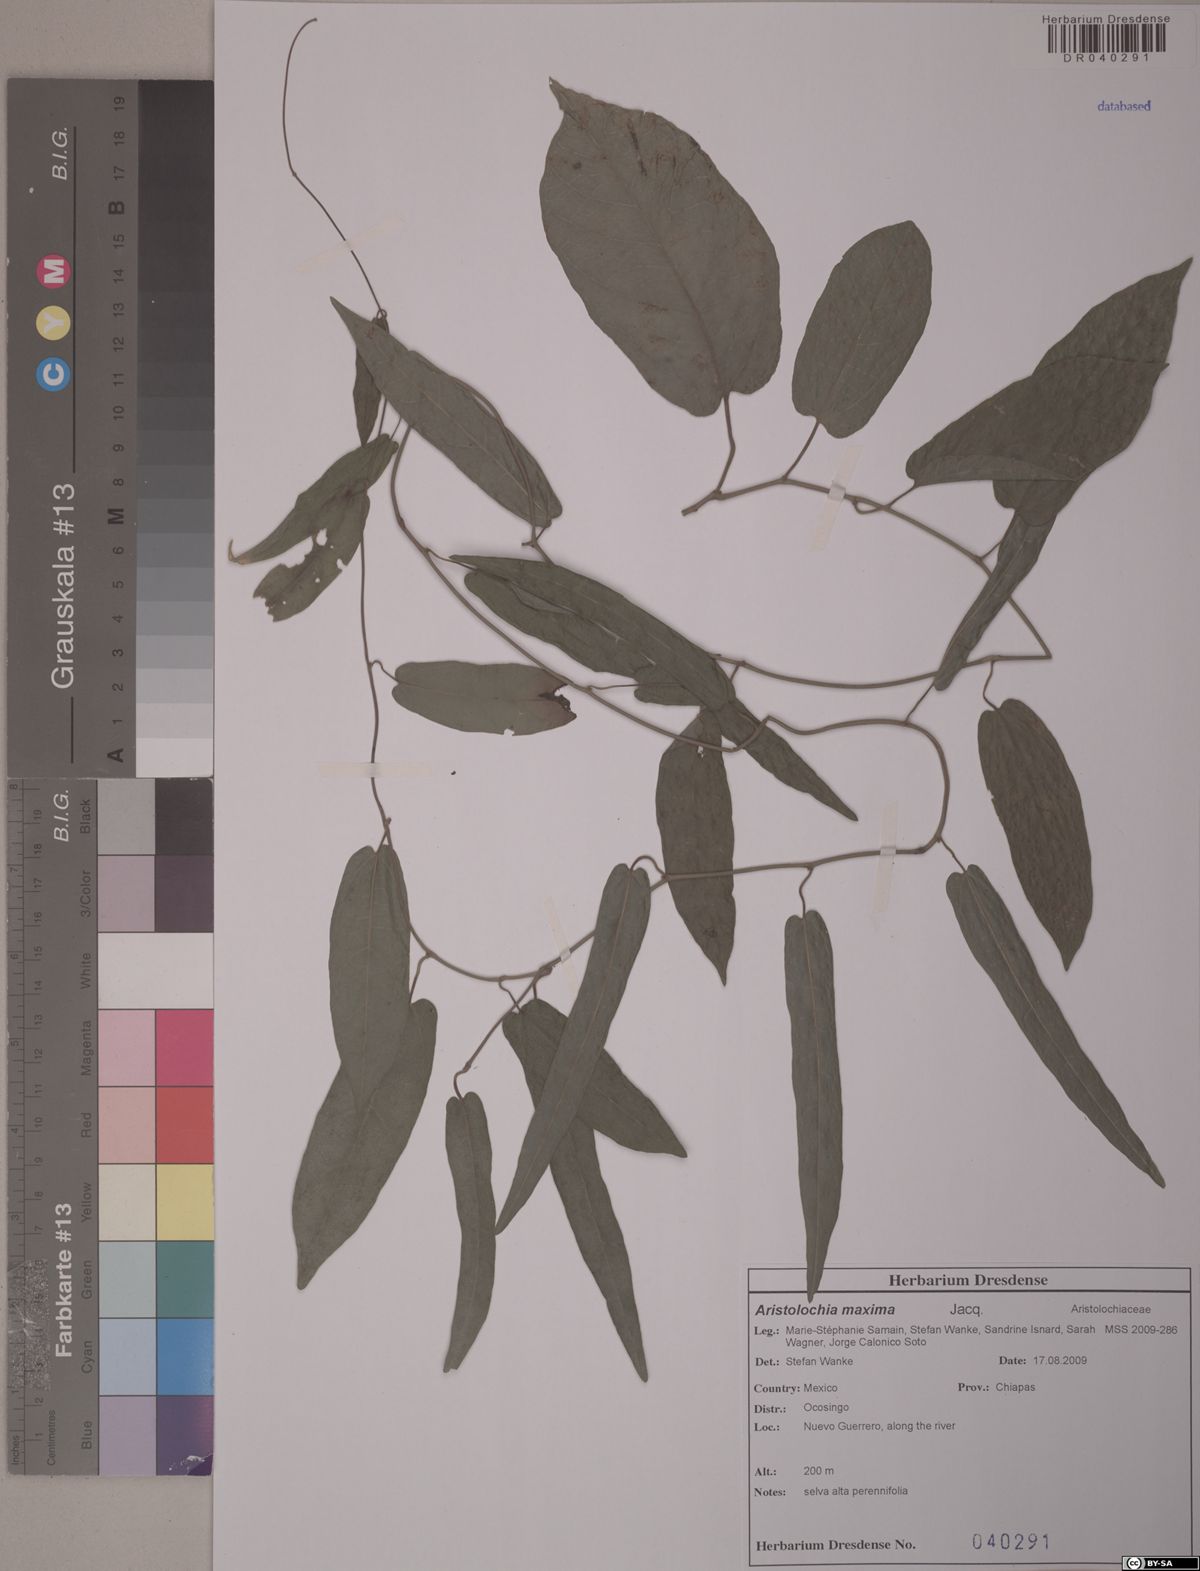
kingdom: Plantae
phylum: Tracheophyta
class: Magnoliopsida
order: Piperales
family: Aristolochiaceae
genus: Aristolochia
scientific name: Aristolochia maxima
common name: Florida dutchman's pipe
